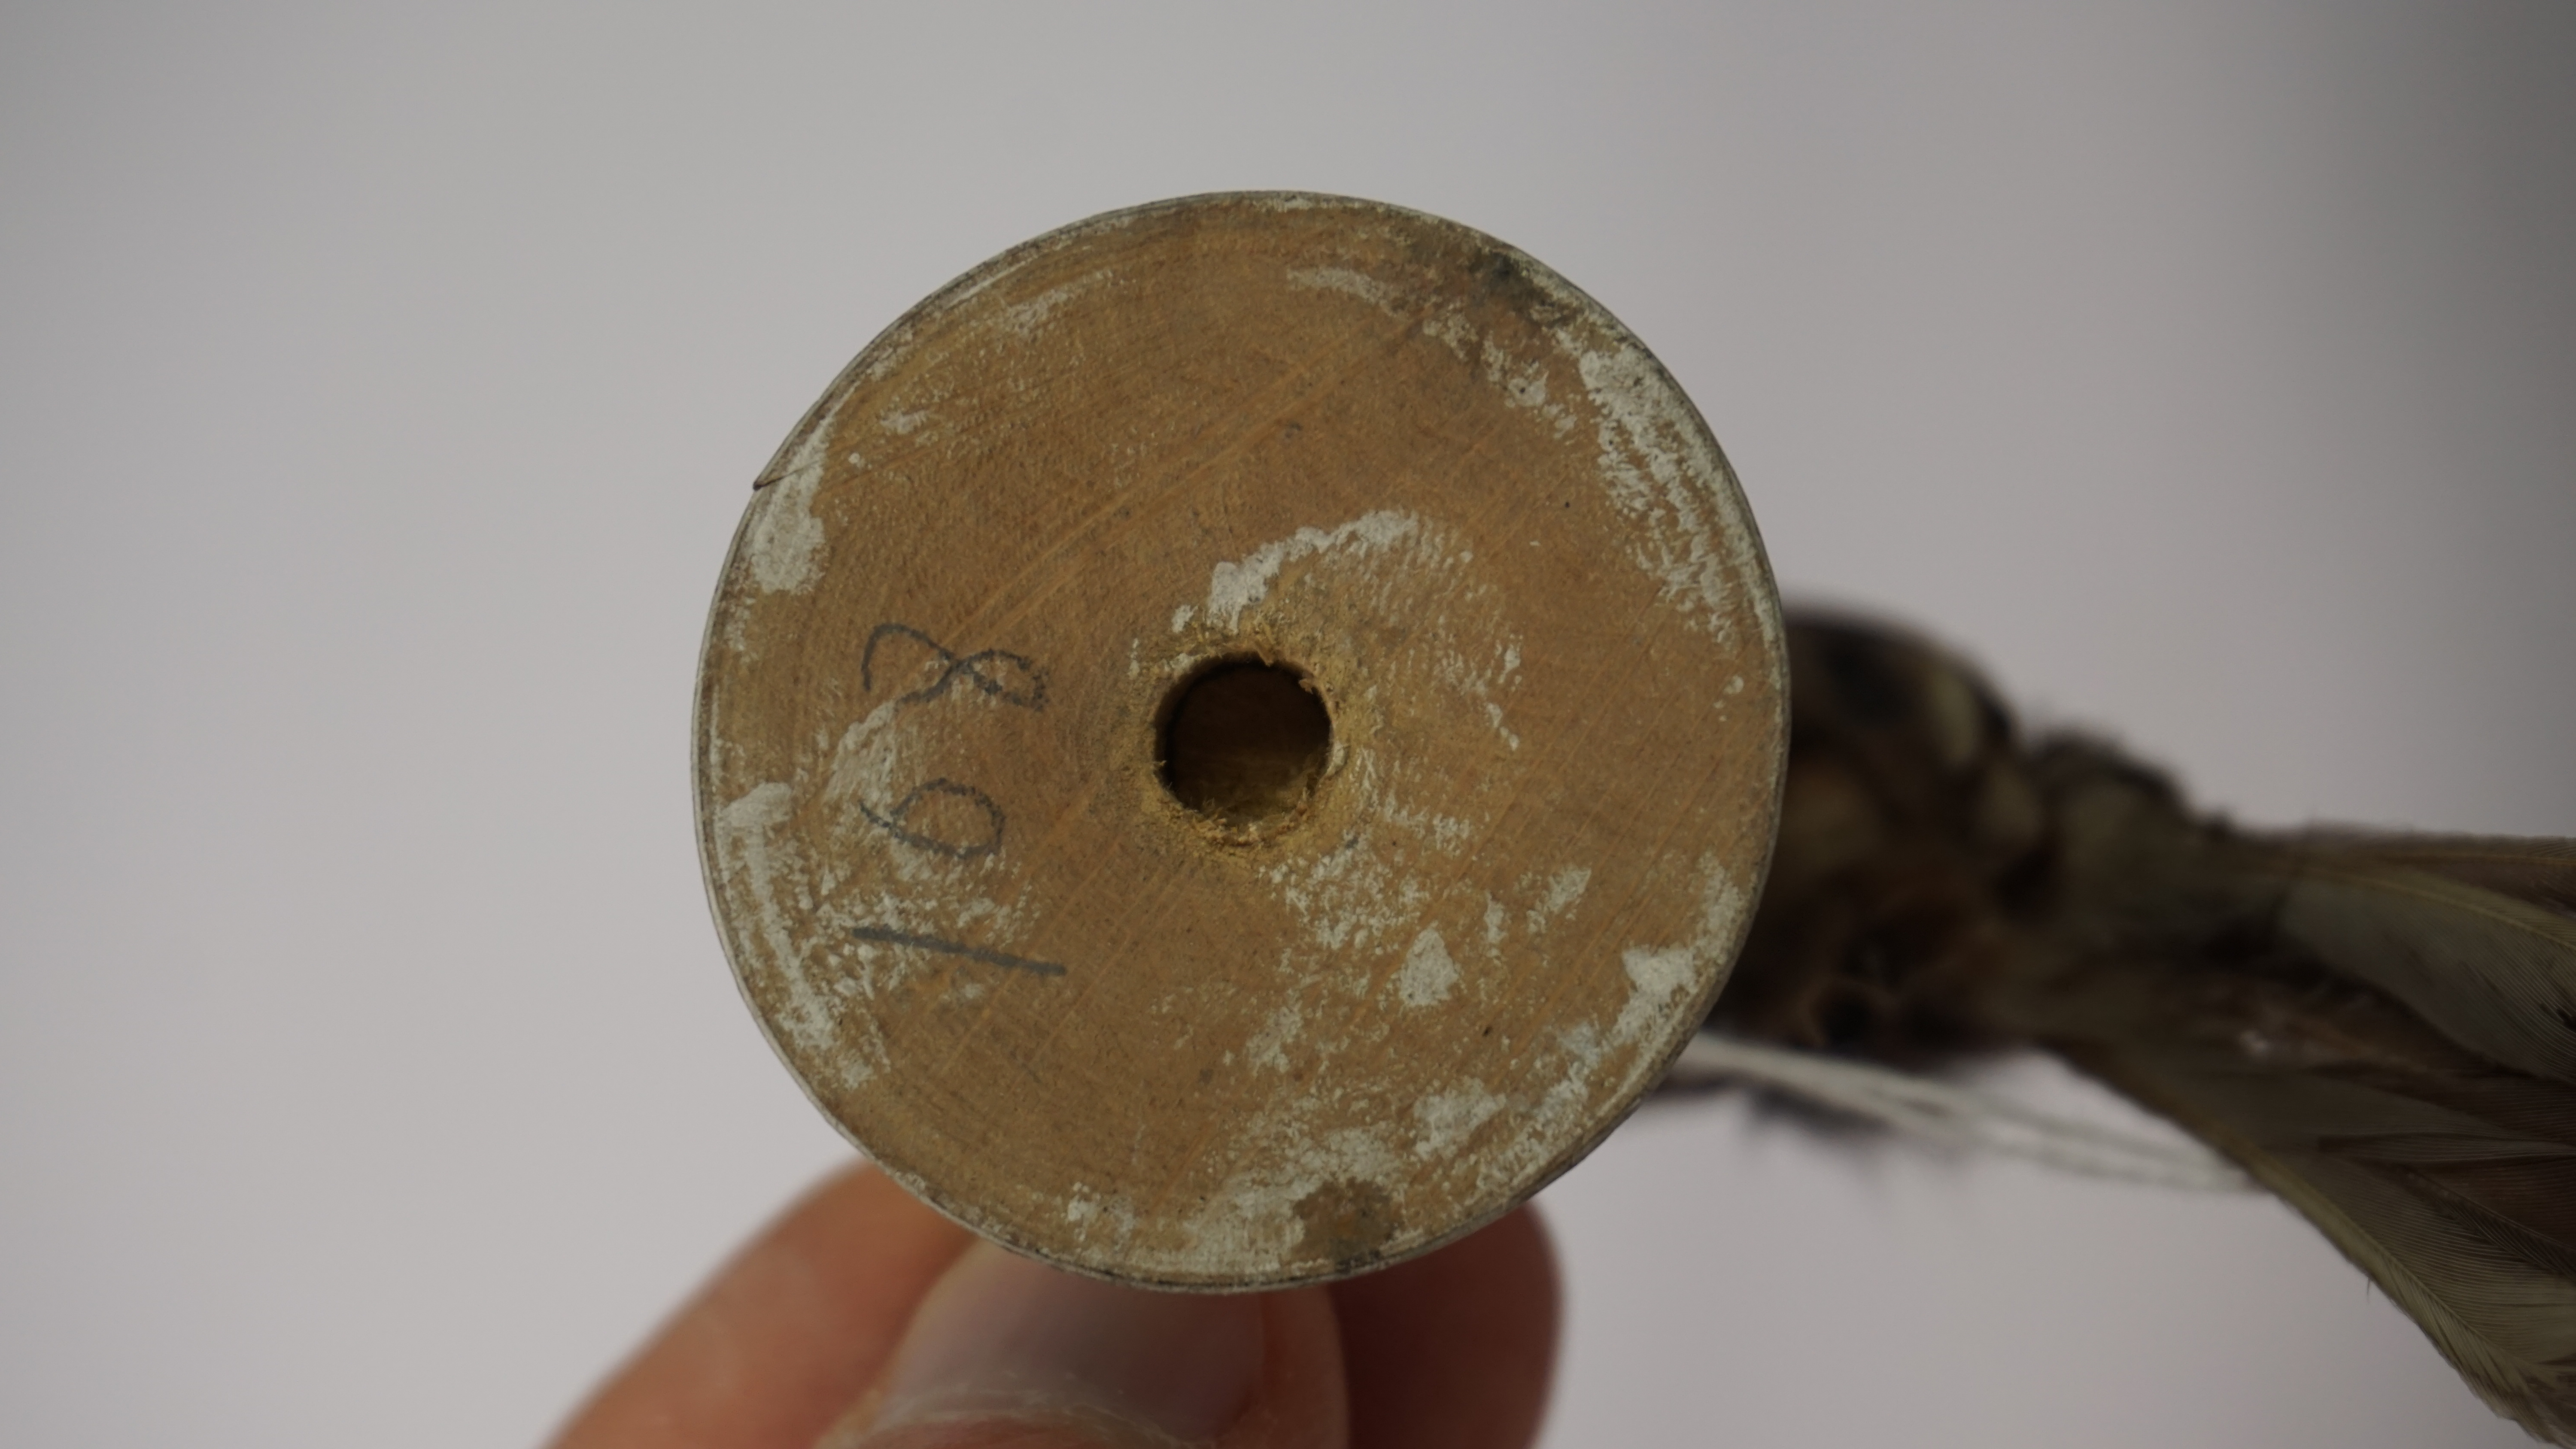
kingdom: Animalia
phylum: Chordata
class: Aves
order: Passeriformes
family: Sylviidae
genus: Sylvia
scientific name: Sylvia undata
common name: Dartford warbler
